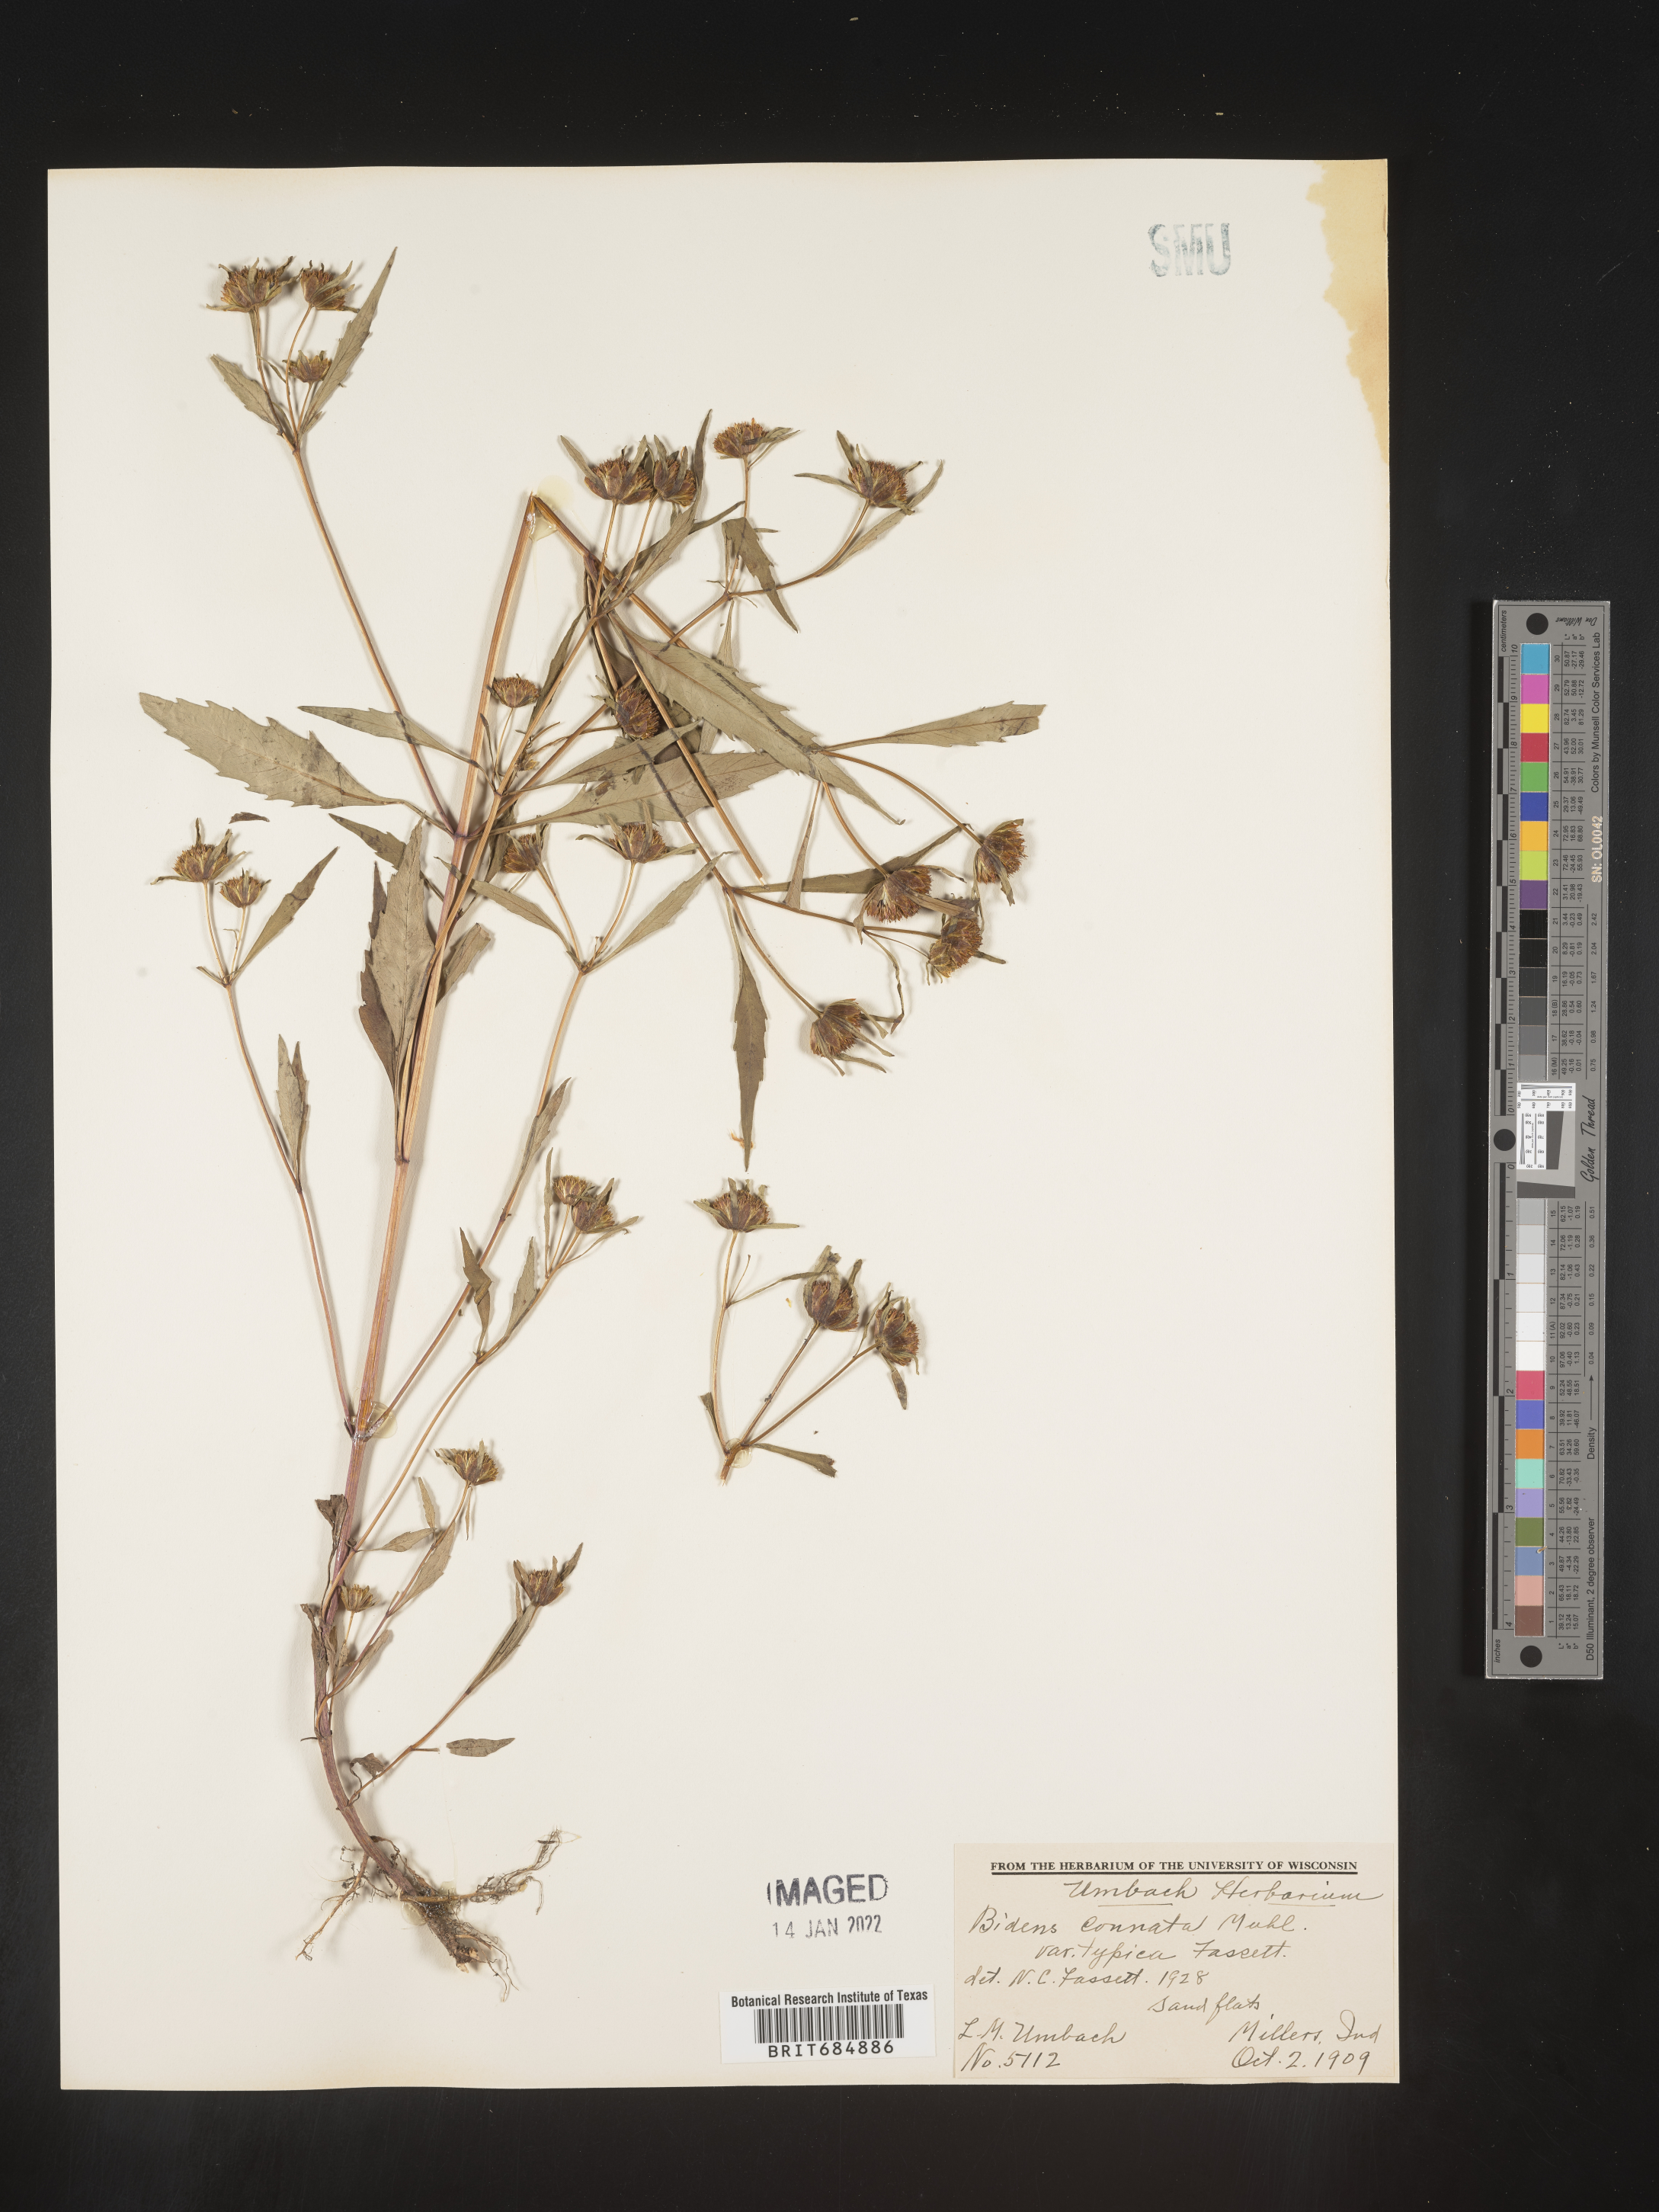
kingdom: Plantae
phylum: Tracheophyta
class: Magnoliopsida
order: Asterales
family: Asteraceae
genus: Bidens
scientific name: Bidens tripartita
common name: Trifid bur-marigold
